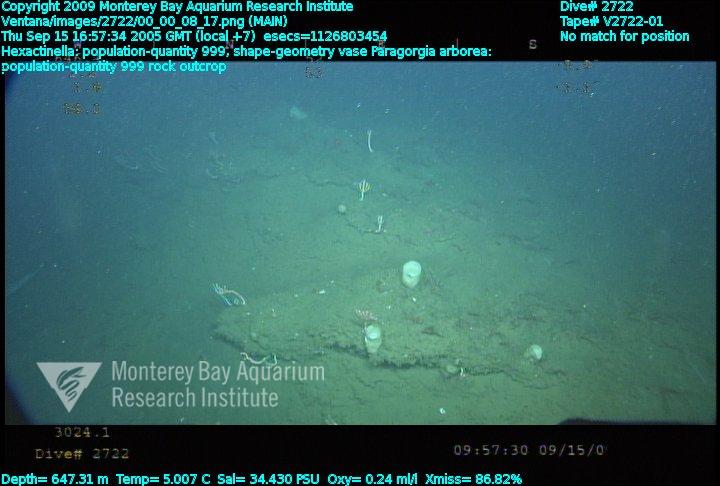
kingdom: Animalia
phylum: Porifera
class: Hexactinellida
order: Sceptrulophora
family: Tretodictyidae
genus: Hexactinella
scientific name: Hexactinella
